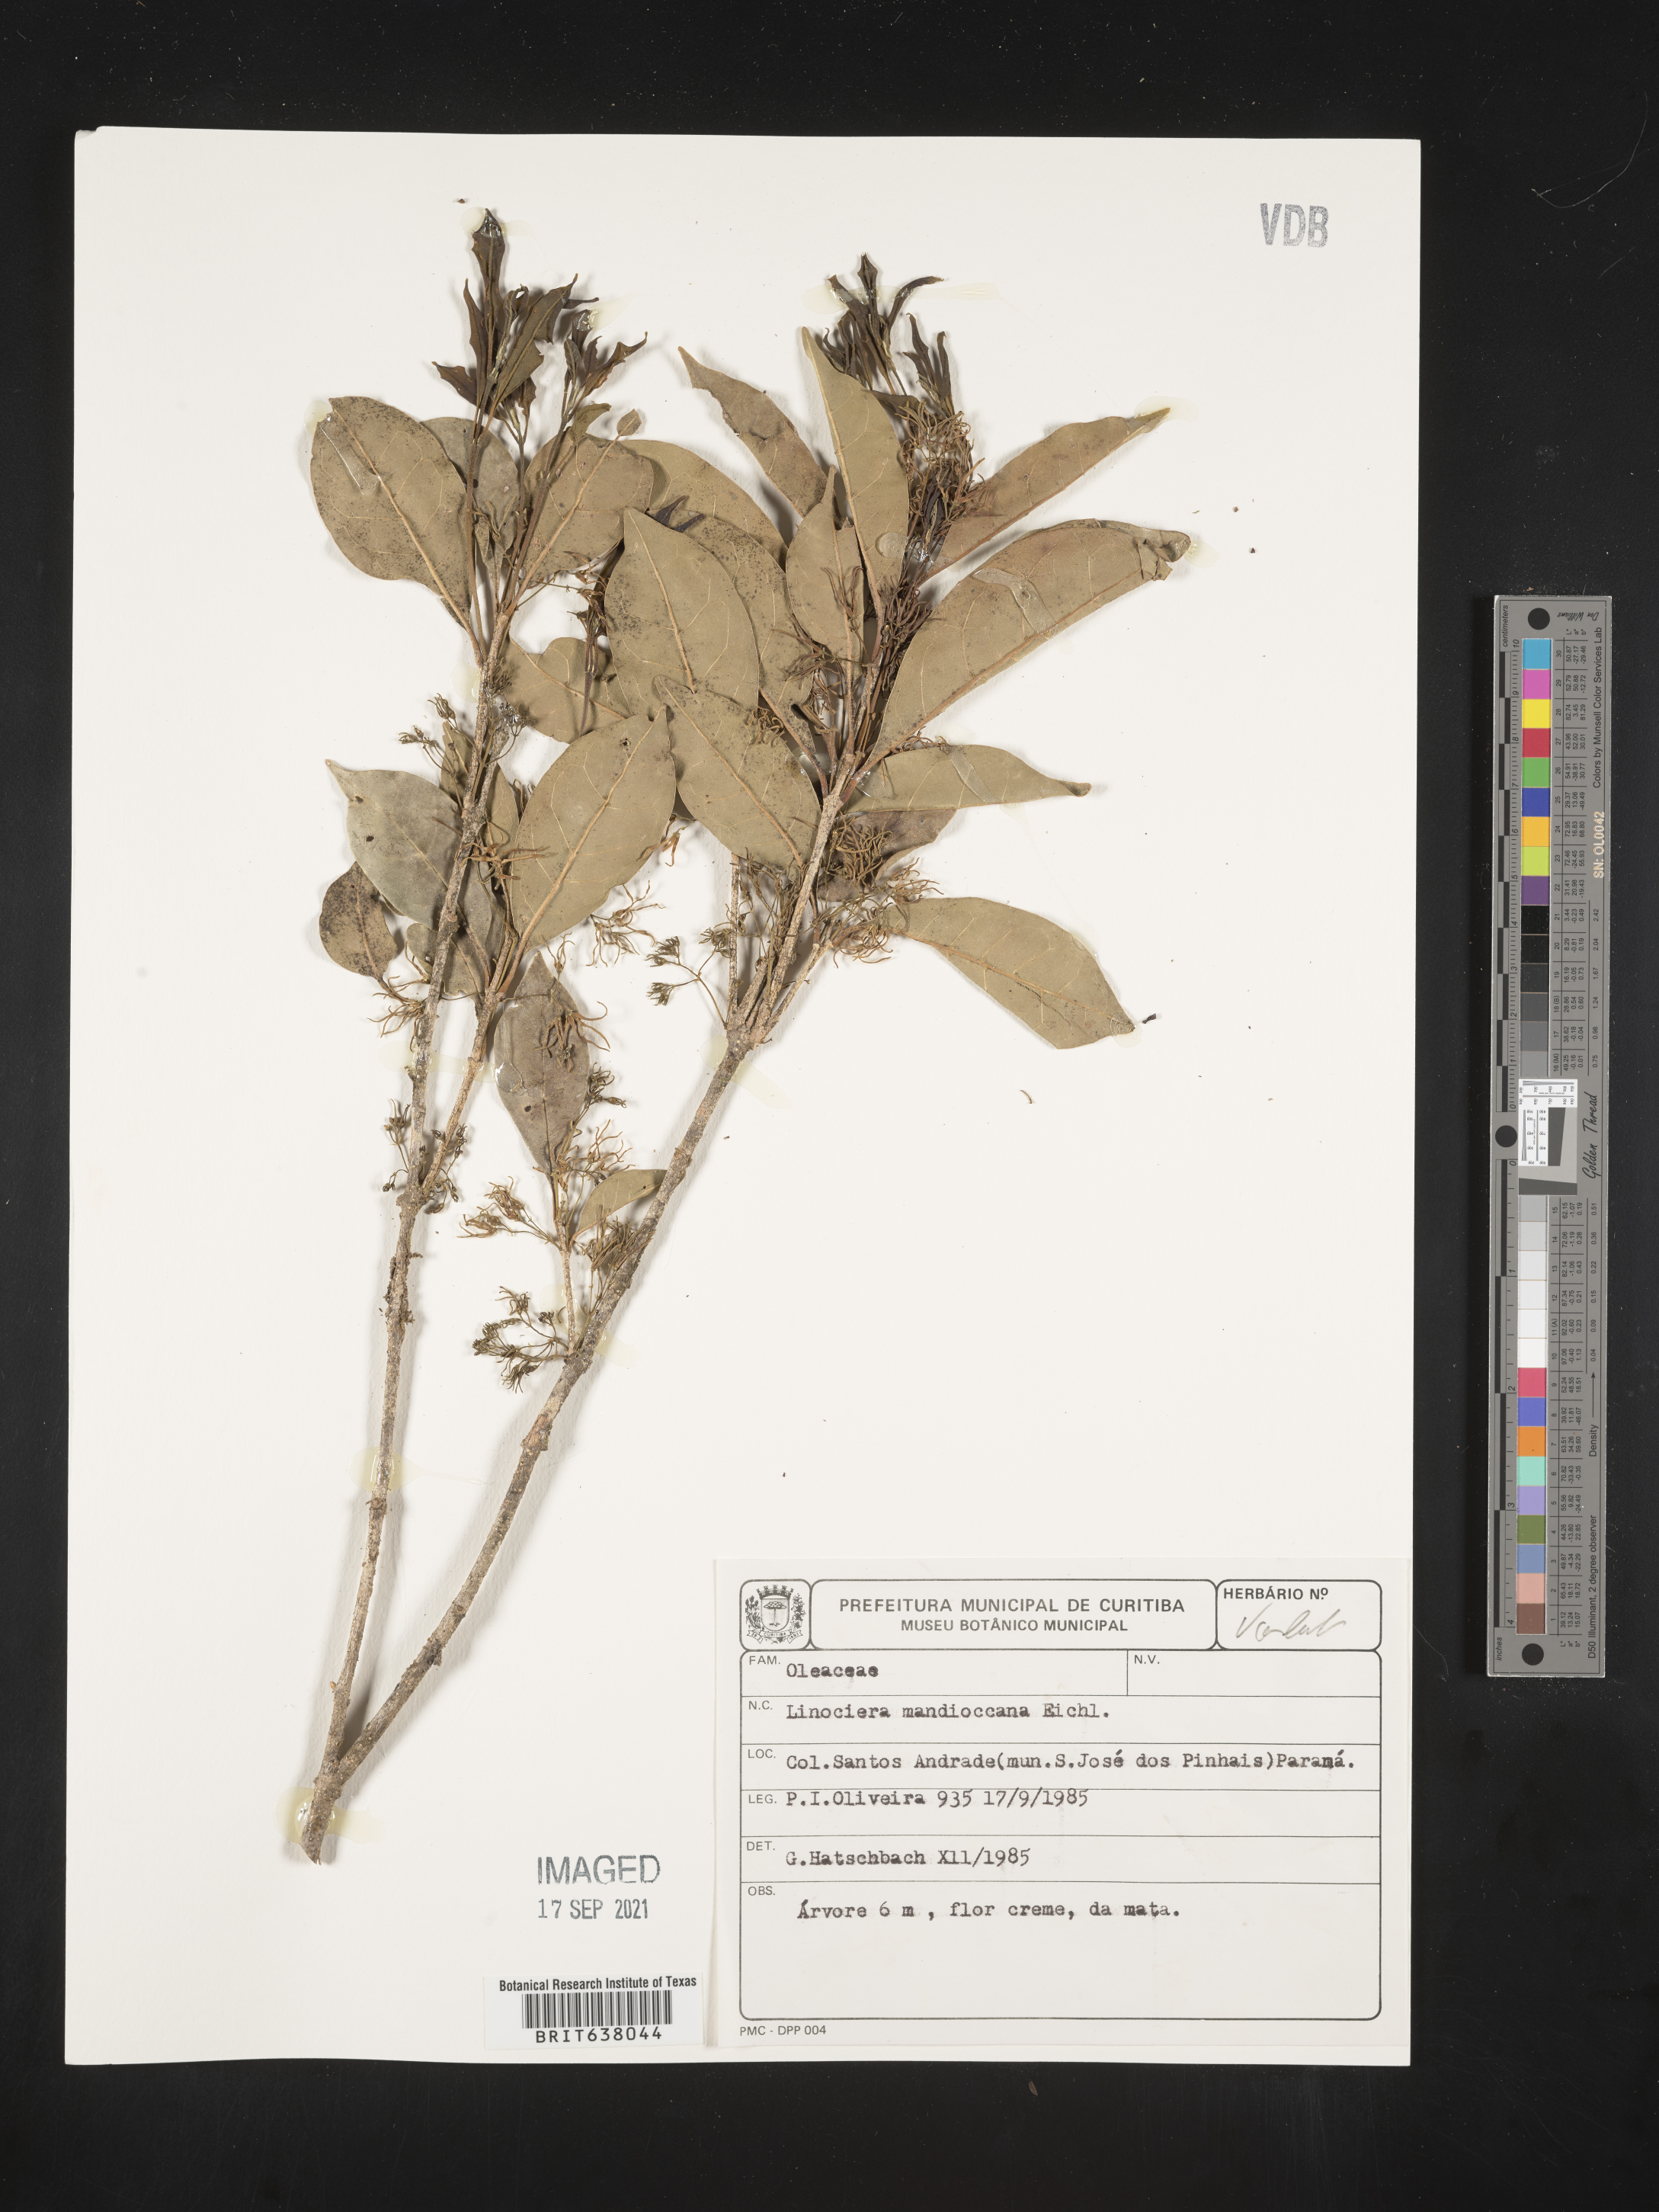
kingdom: Plantae
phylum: Tracheophyta
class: Magnoliopsida
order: Lamiales
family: Oleaceae
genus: Chionanthus
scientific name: Chionanthus
